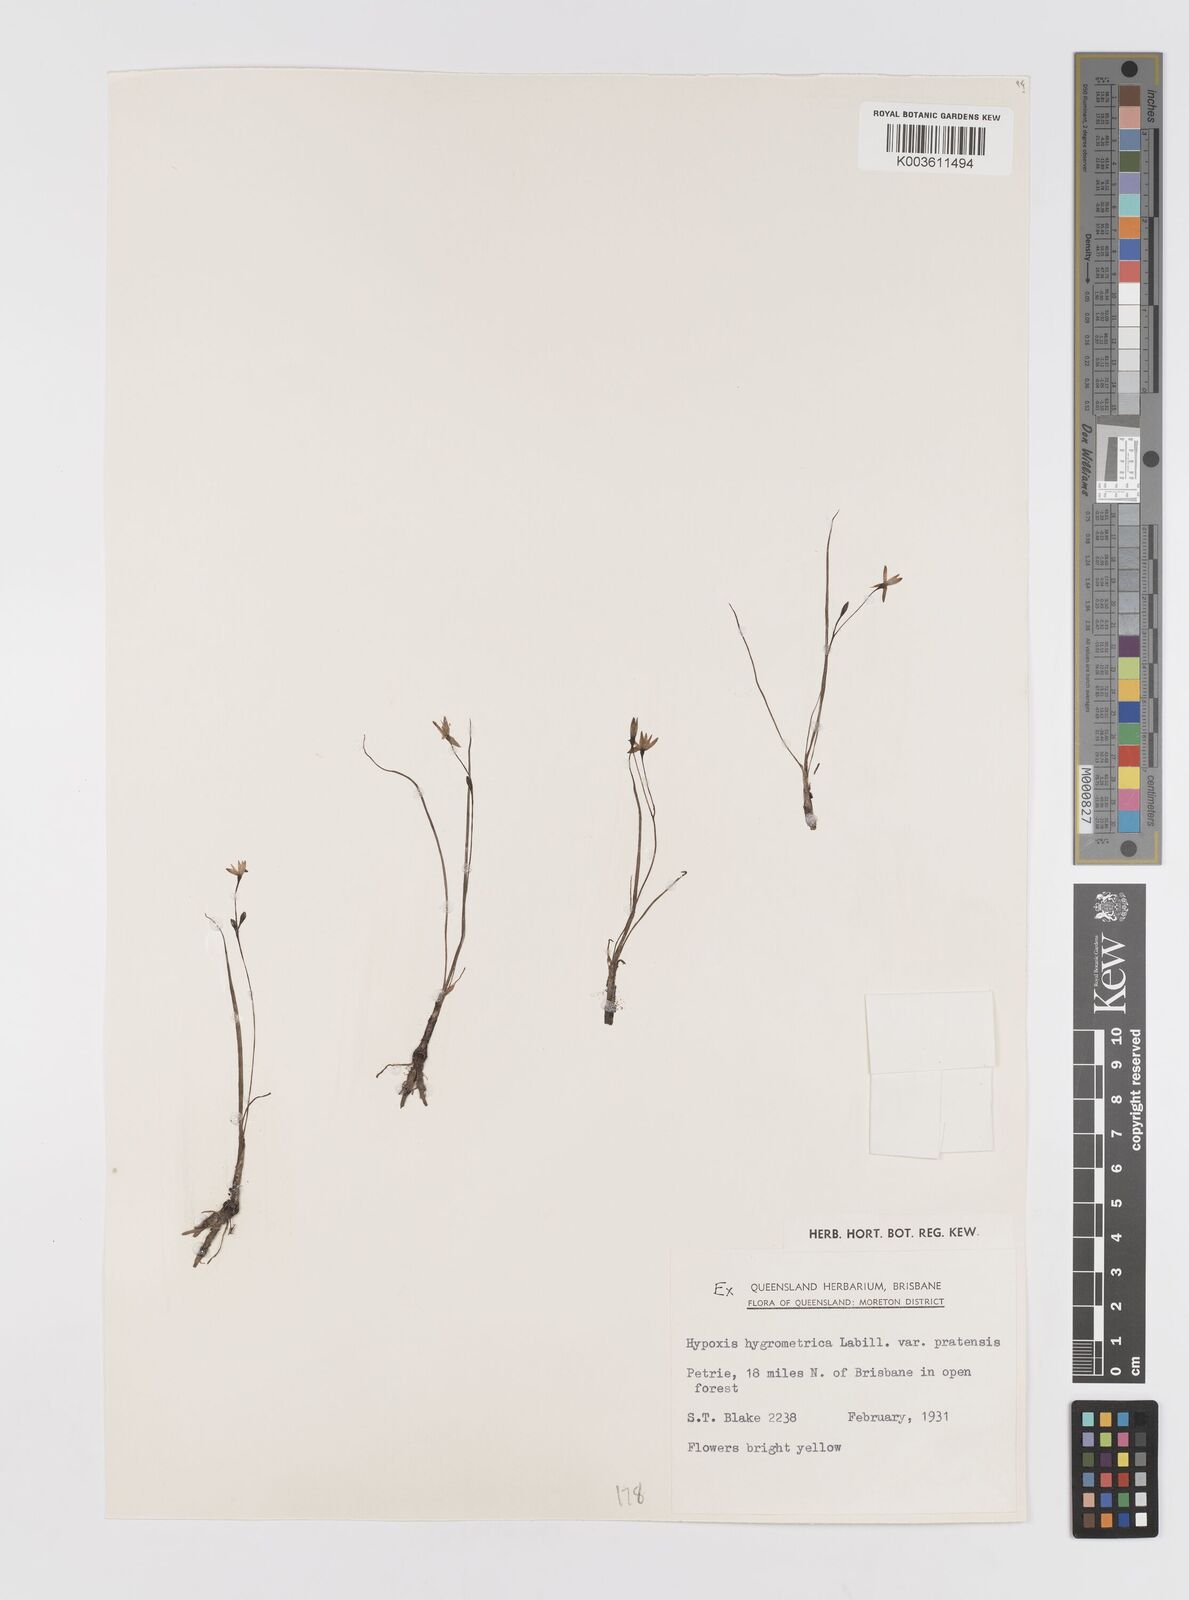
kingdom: Plantae
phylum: Tracheophyta
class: Liliopsida
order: Asparagales
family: Hypoxidaceae
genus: Hypoxis
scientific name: Hypoxis hygrometrica
